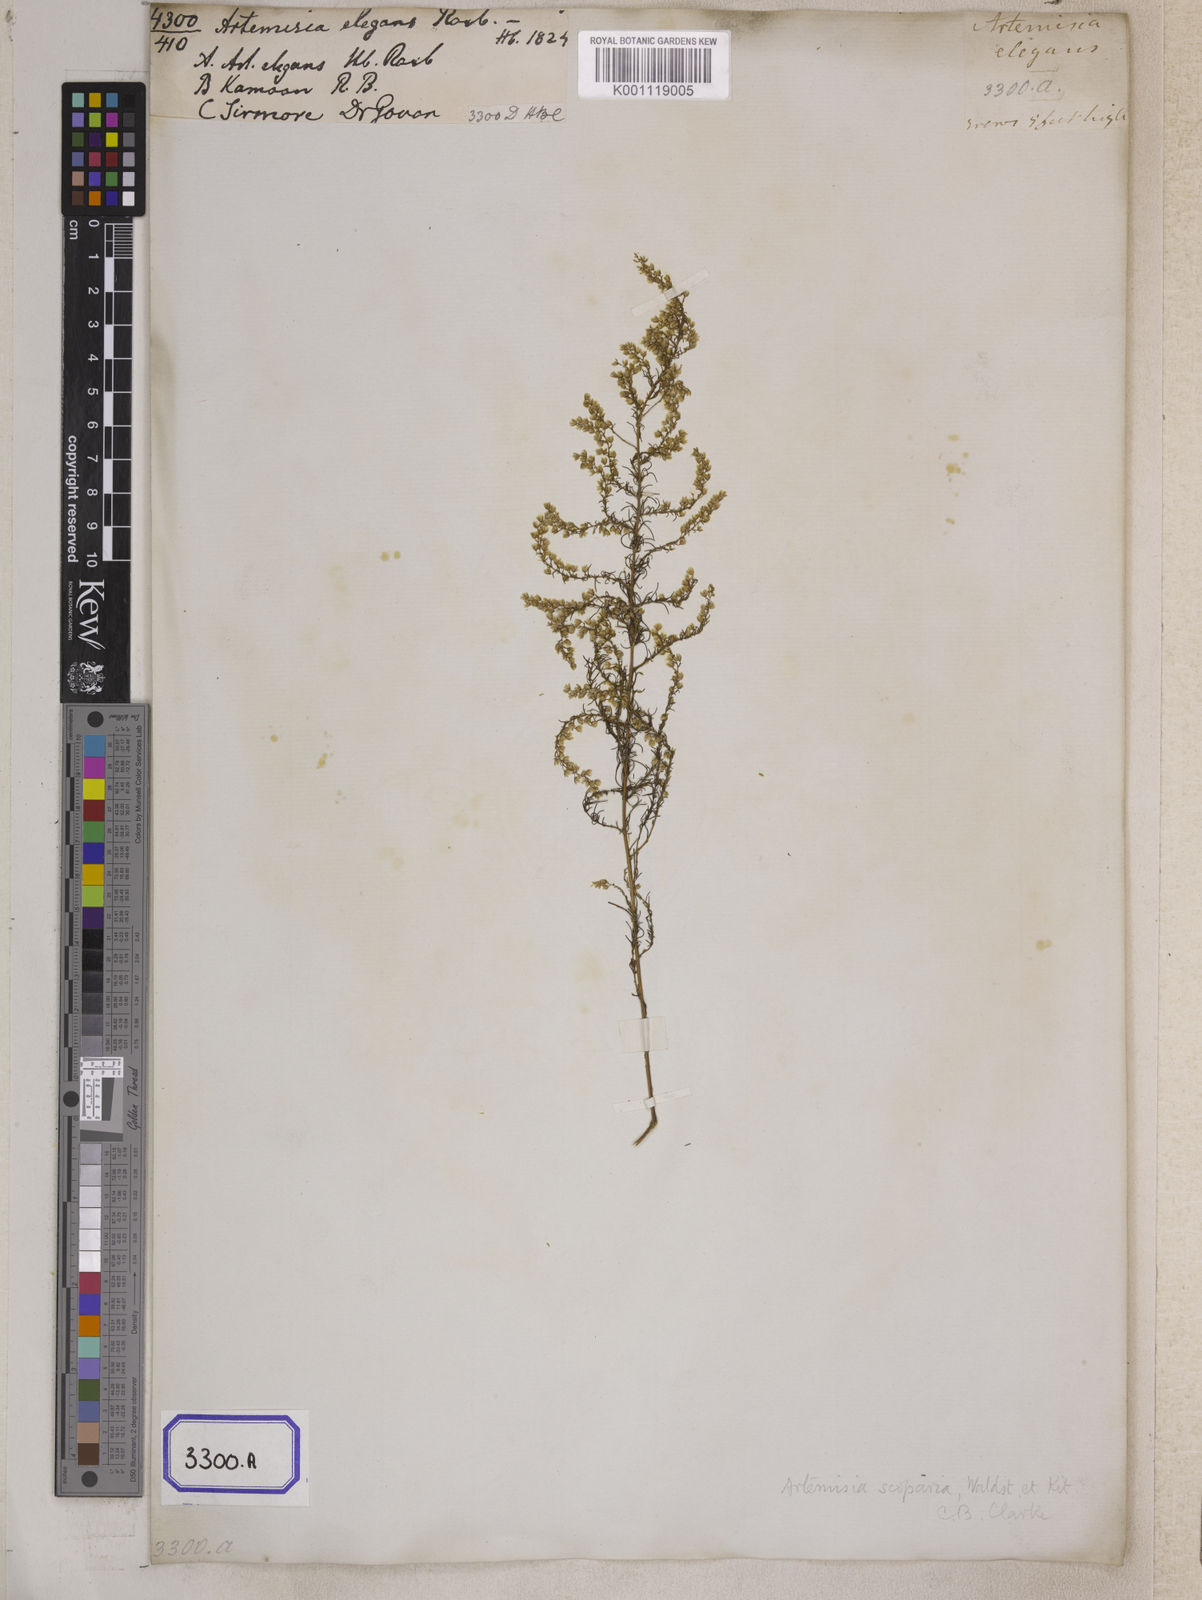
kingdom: Plantae
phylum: Tracheophyta
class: Magnoliopsida
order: Asterales
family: Asteraceae
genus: Artemisia
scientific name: Artemisia scoparia
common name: Redstem wormwood
